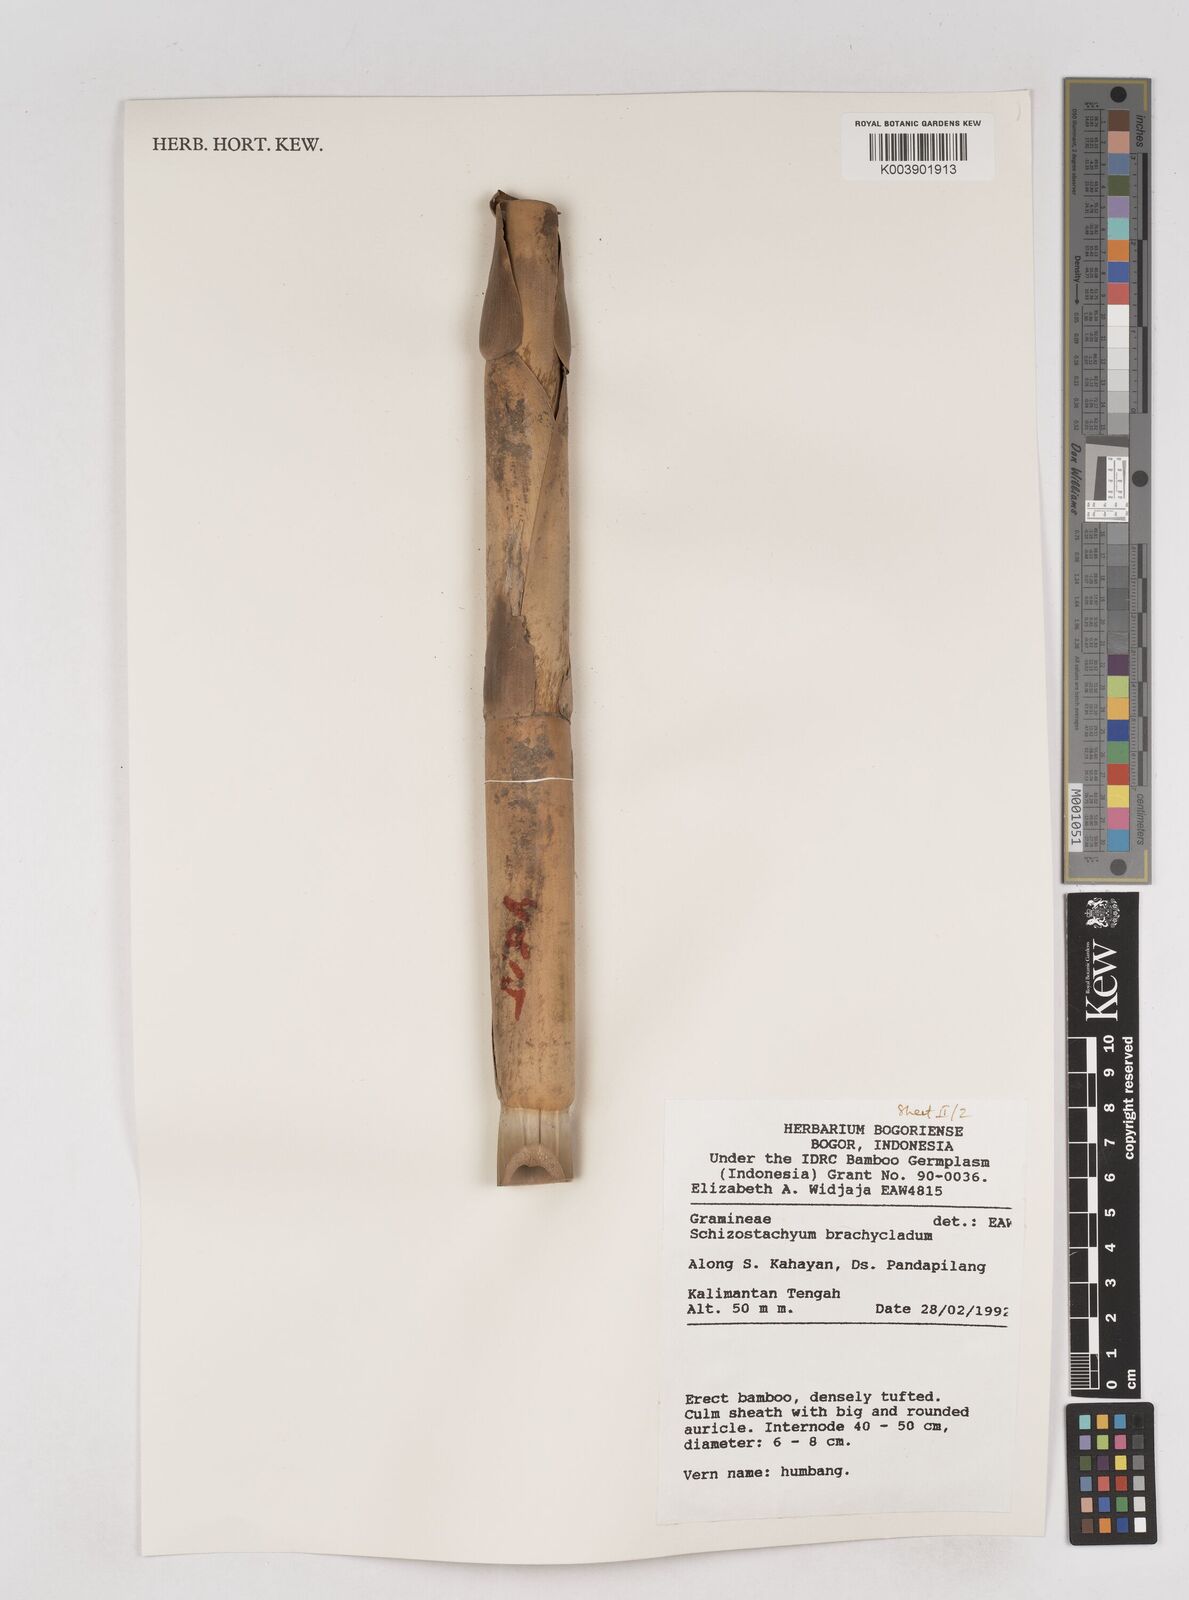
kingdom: Plantae
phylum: Tracheophyta
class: Liliopsida
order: Poales
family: Poaceae
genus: Schizostachyum
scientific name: Schizostachyum brachycladum
